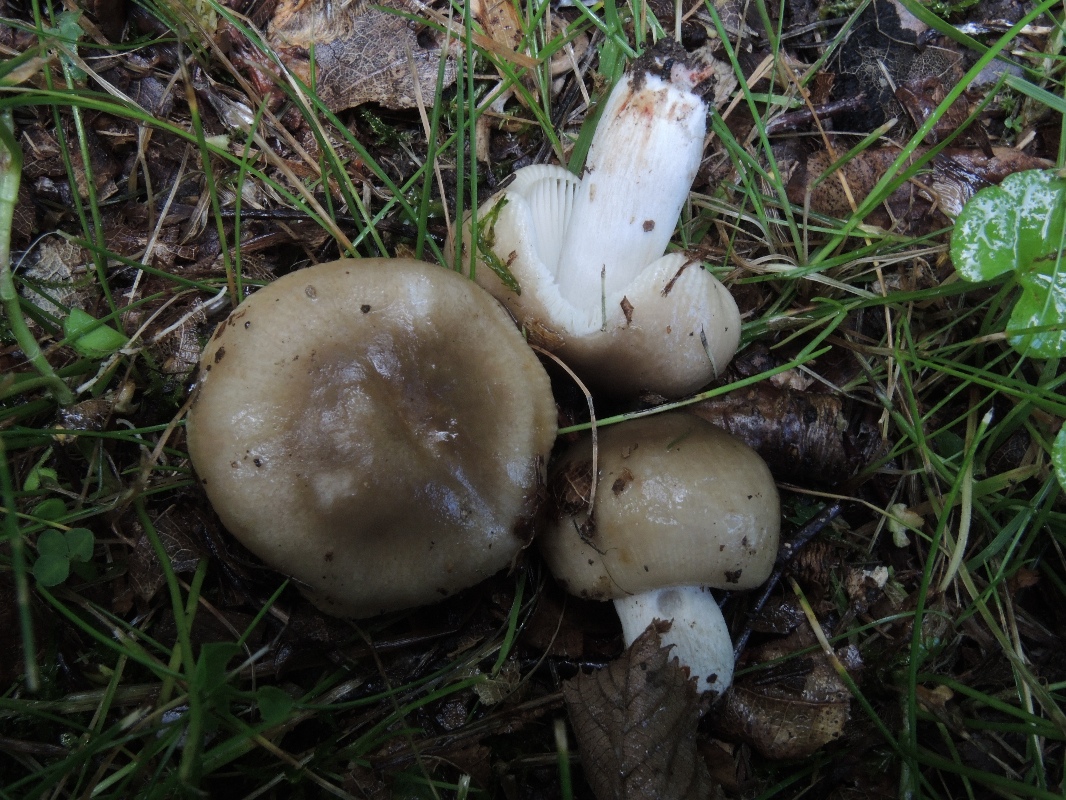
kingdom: Fungi
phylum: Basidiomycota
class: Agaricomycetes
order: Russulales
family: Russulaceae
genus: Russula
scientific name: Russula recondita
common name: mild kam-skørhat
